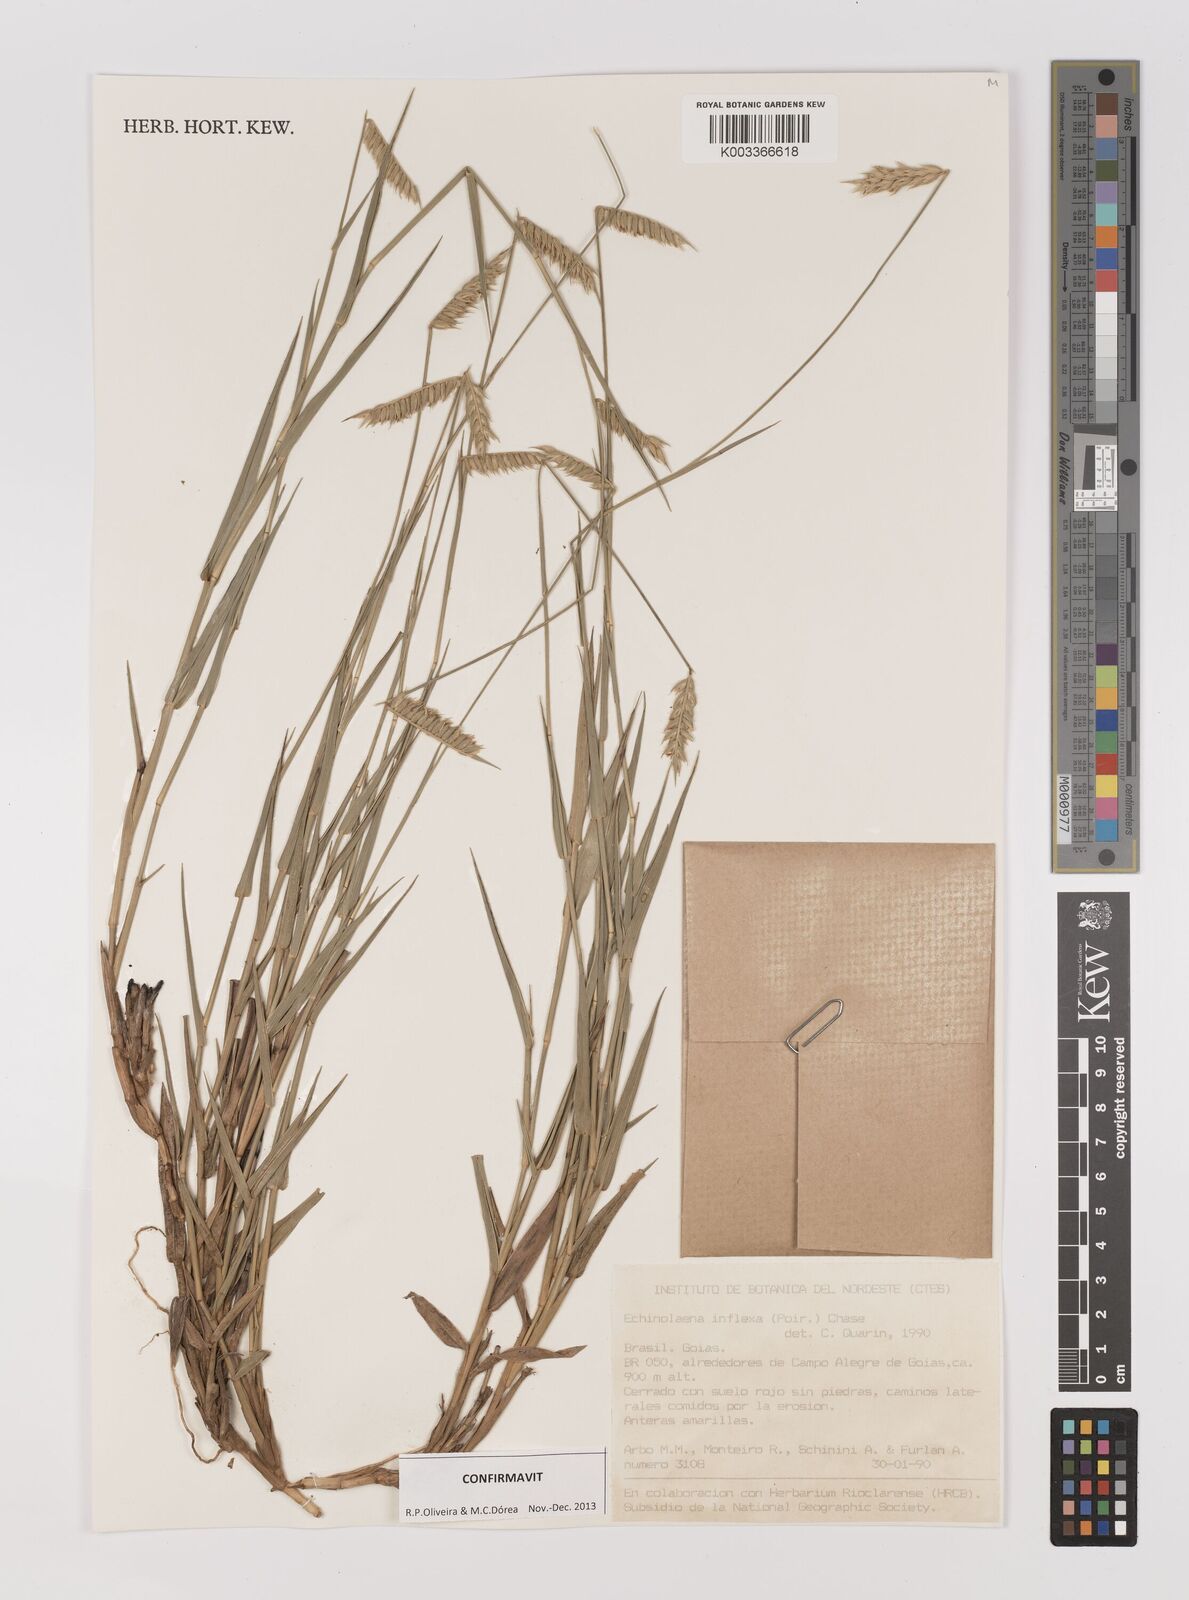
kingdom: Plantae
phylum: Tracheophyta
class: Liliopsida
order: Poales
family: Poaceae
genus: Echinolaena
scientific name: Echinolaena inflexa
